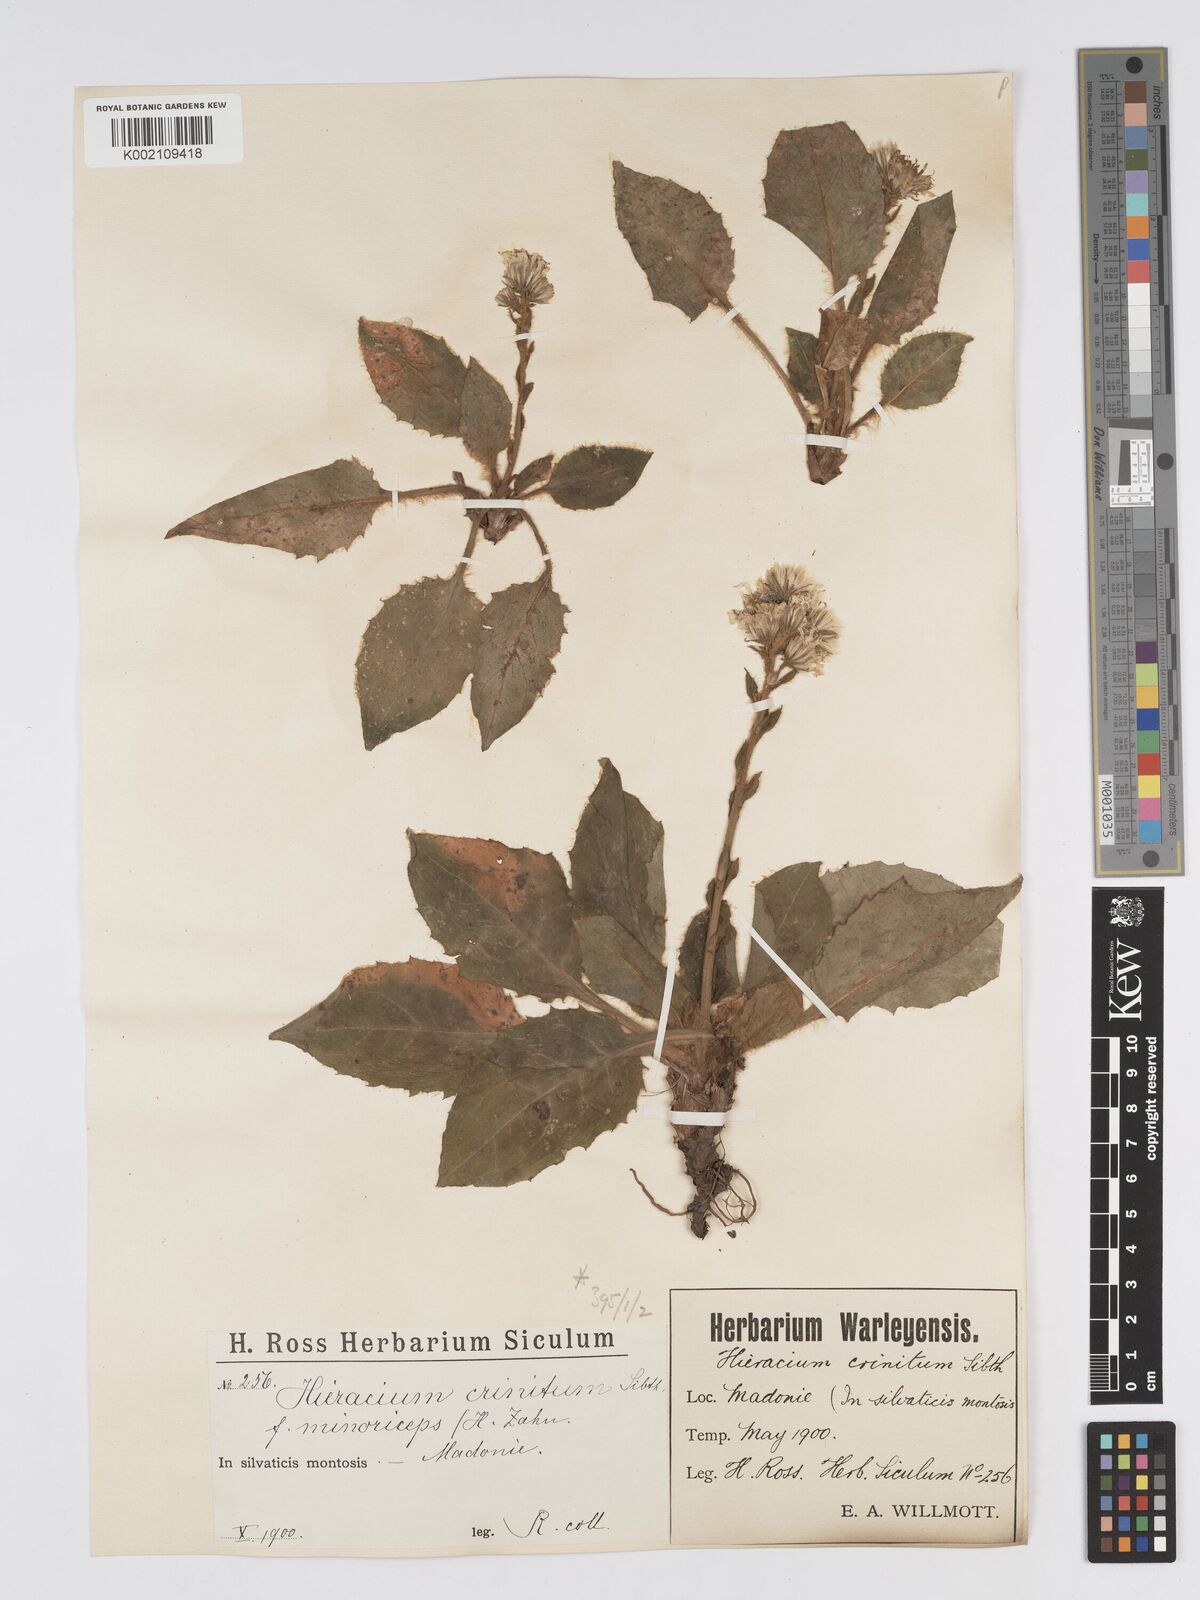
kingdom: Plantae
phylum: Tracheophyta
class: Magnoliopsida
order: Asterales
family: Asteraceae
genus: Hieracium
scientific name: Hieracium racemosum
